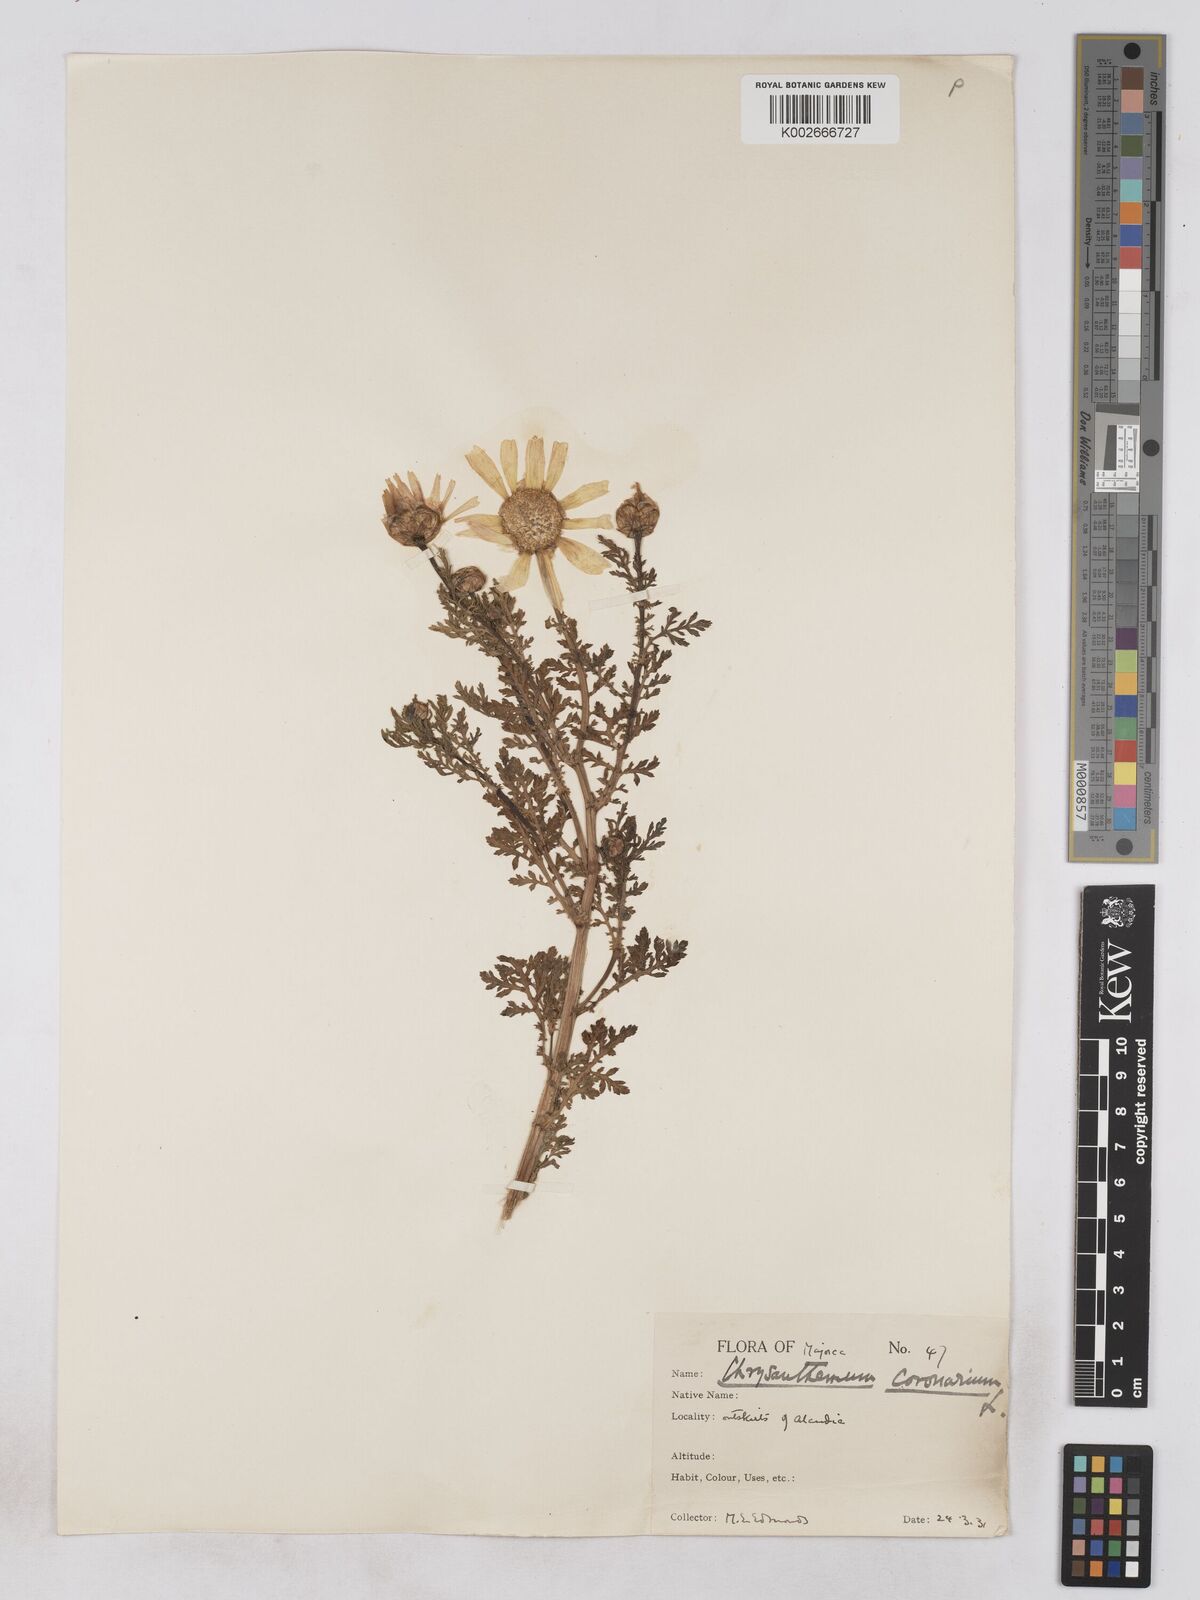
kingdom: Plantae
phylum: Tracheophyta
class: Magnoliopsida
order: Asterales
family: Asteraceae
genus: Glebionis
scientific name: Glebionis
